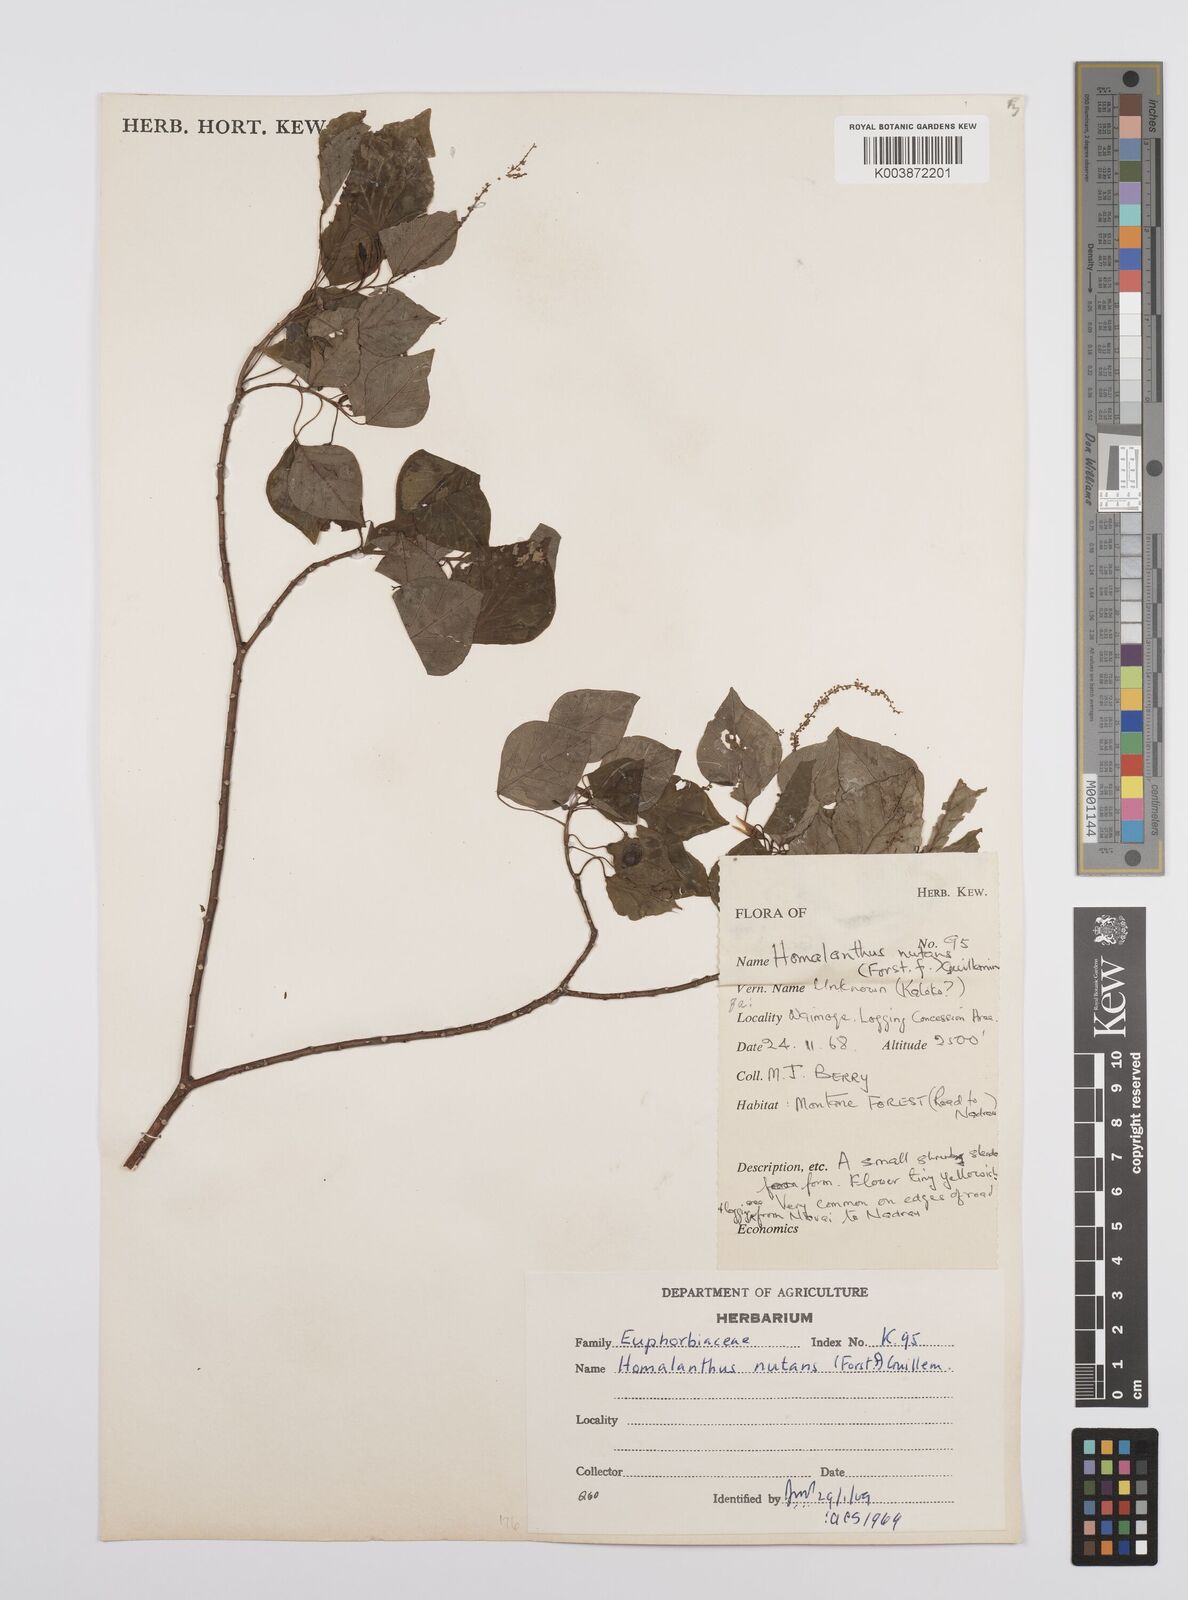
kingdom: Plantae
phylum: Tracheophyta
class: Magnoliopsida
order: Malpighiales
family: Euphorbiaceae
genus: Homalanthus
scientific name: Homalanthus nutans
